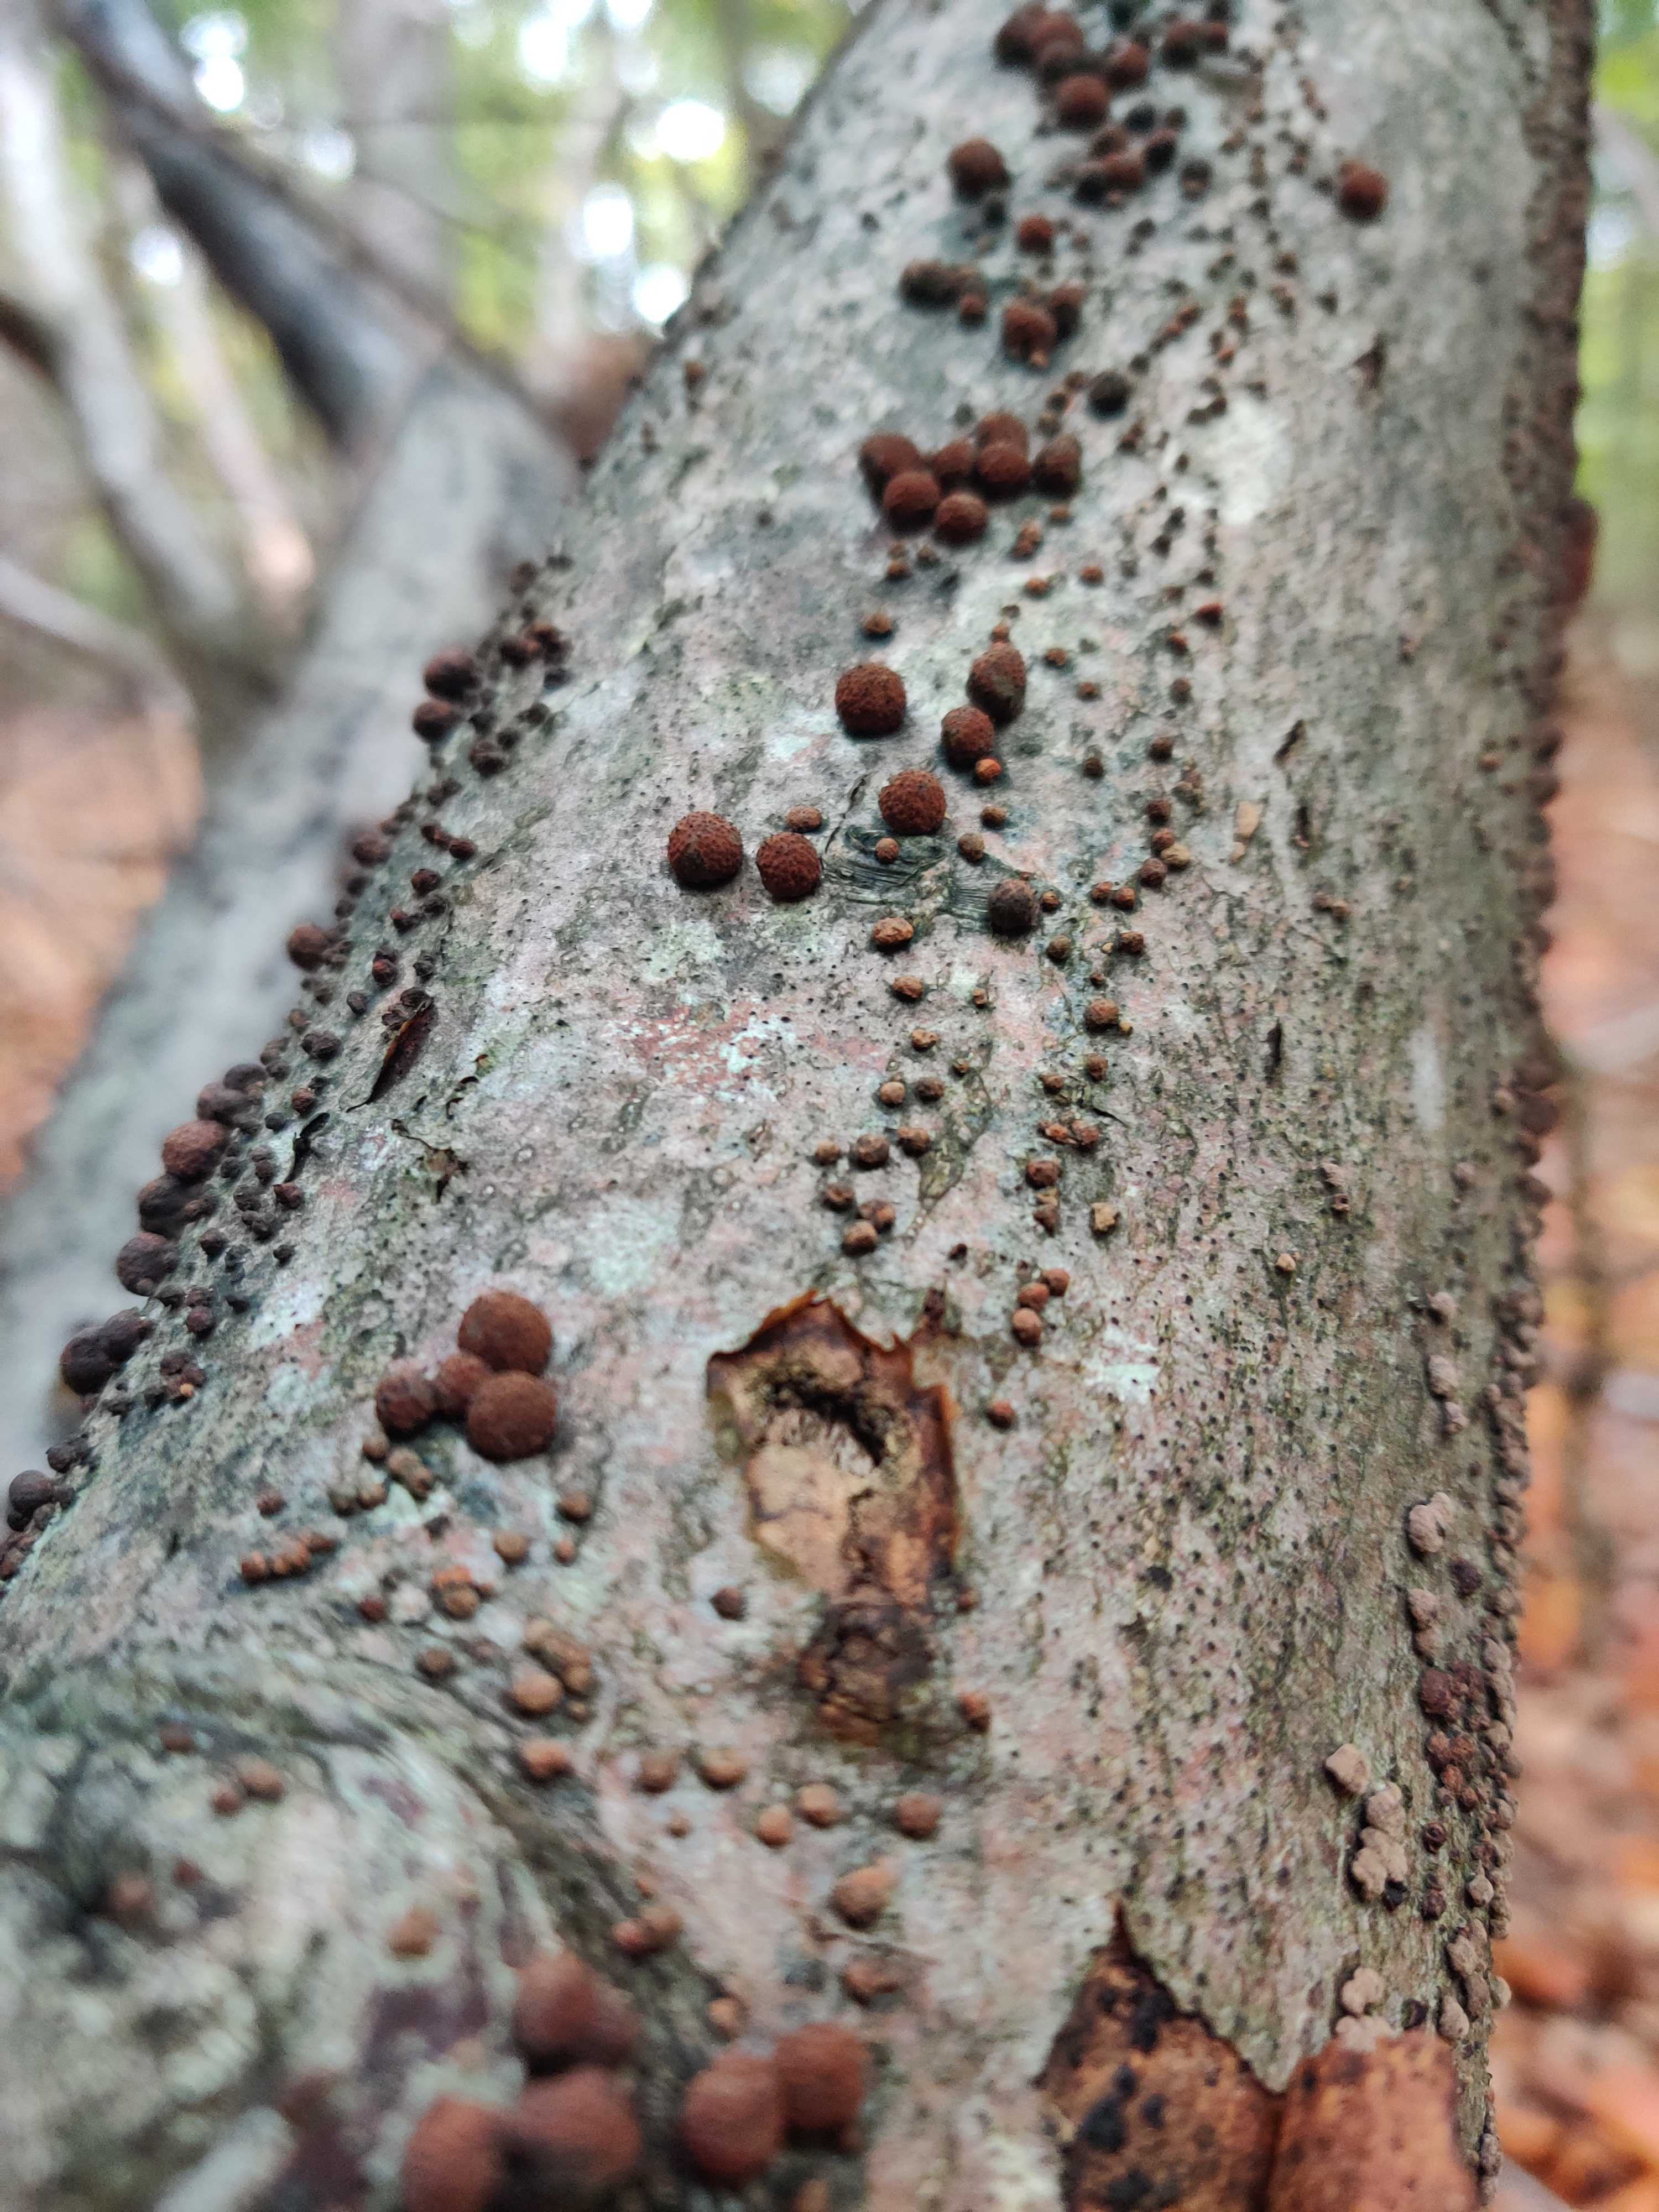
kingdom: Fungi
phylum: Ascomycota
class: Sordariomycetes
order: Xylariales
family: Hypoxylaceae
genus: Hypoxylon
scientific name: Hypoxylon fragiforme
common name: kuljordbær
